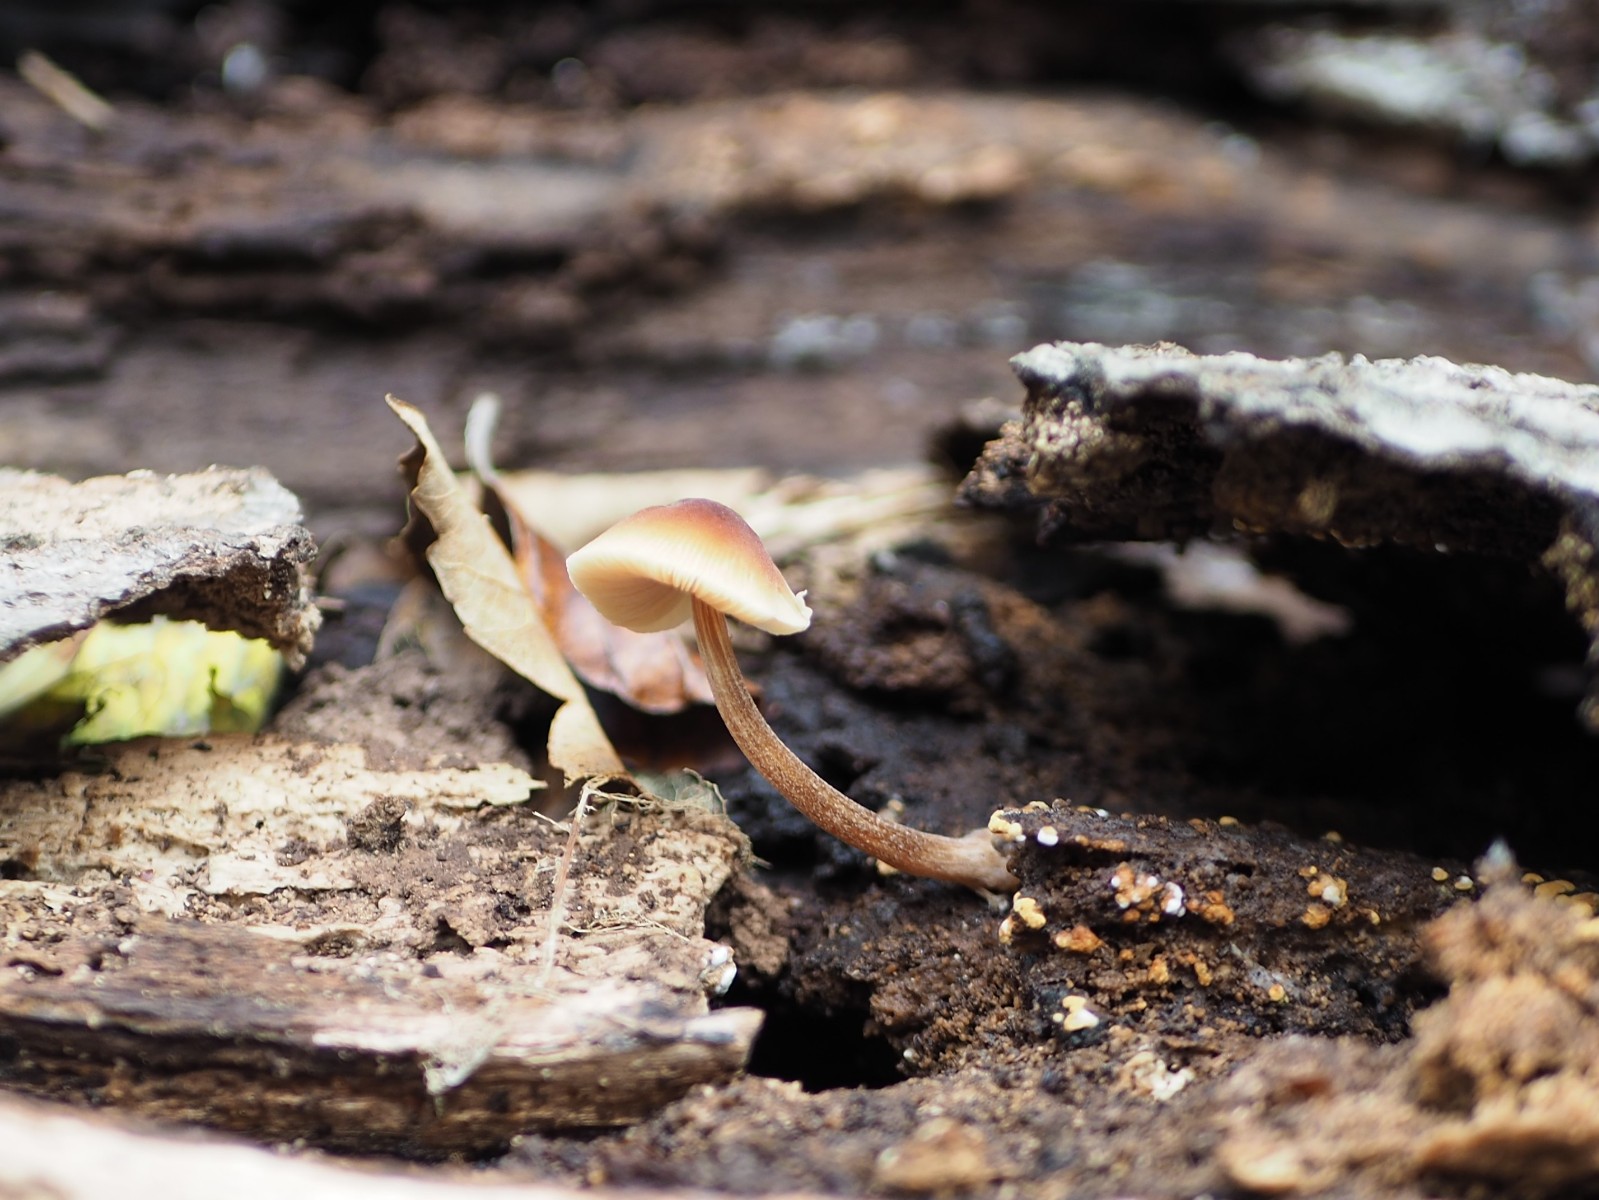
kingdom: Fungi
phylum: Basidiomycota
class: Agaricomycetes
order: Agaricales
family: Pluteaceae
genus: Pluteus
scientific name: Pluteus
